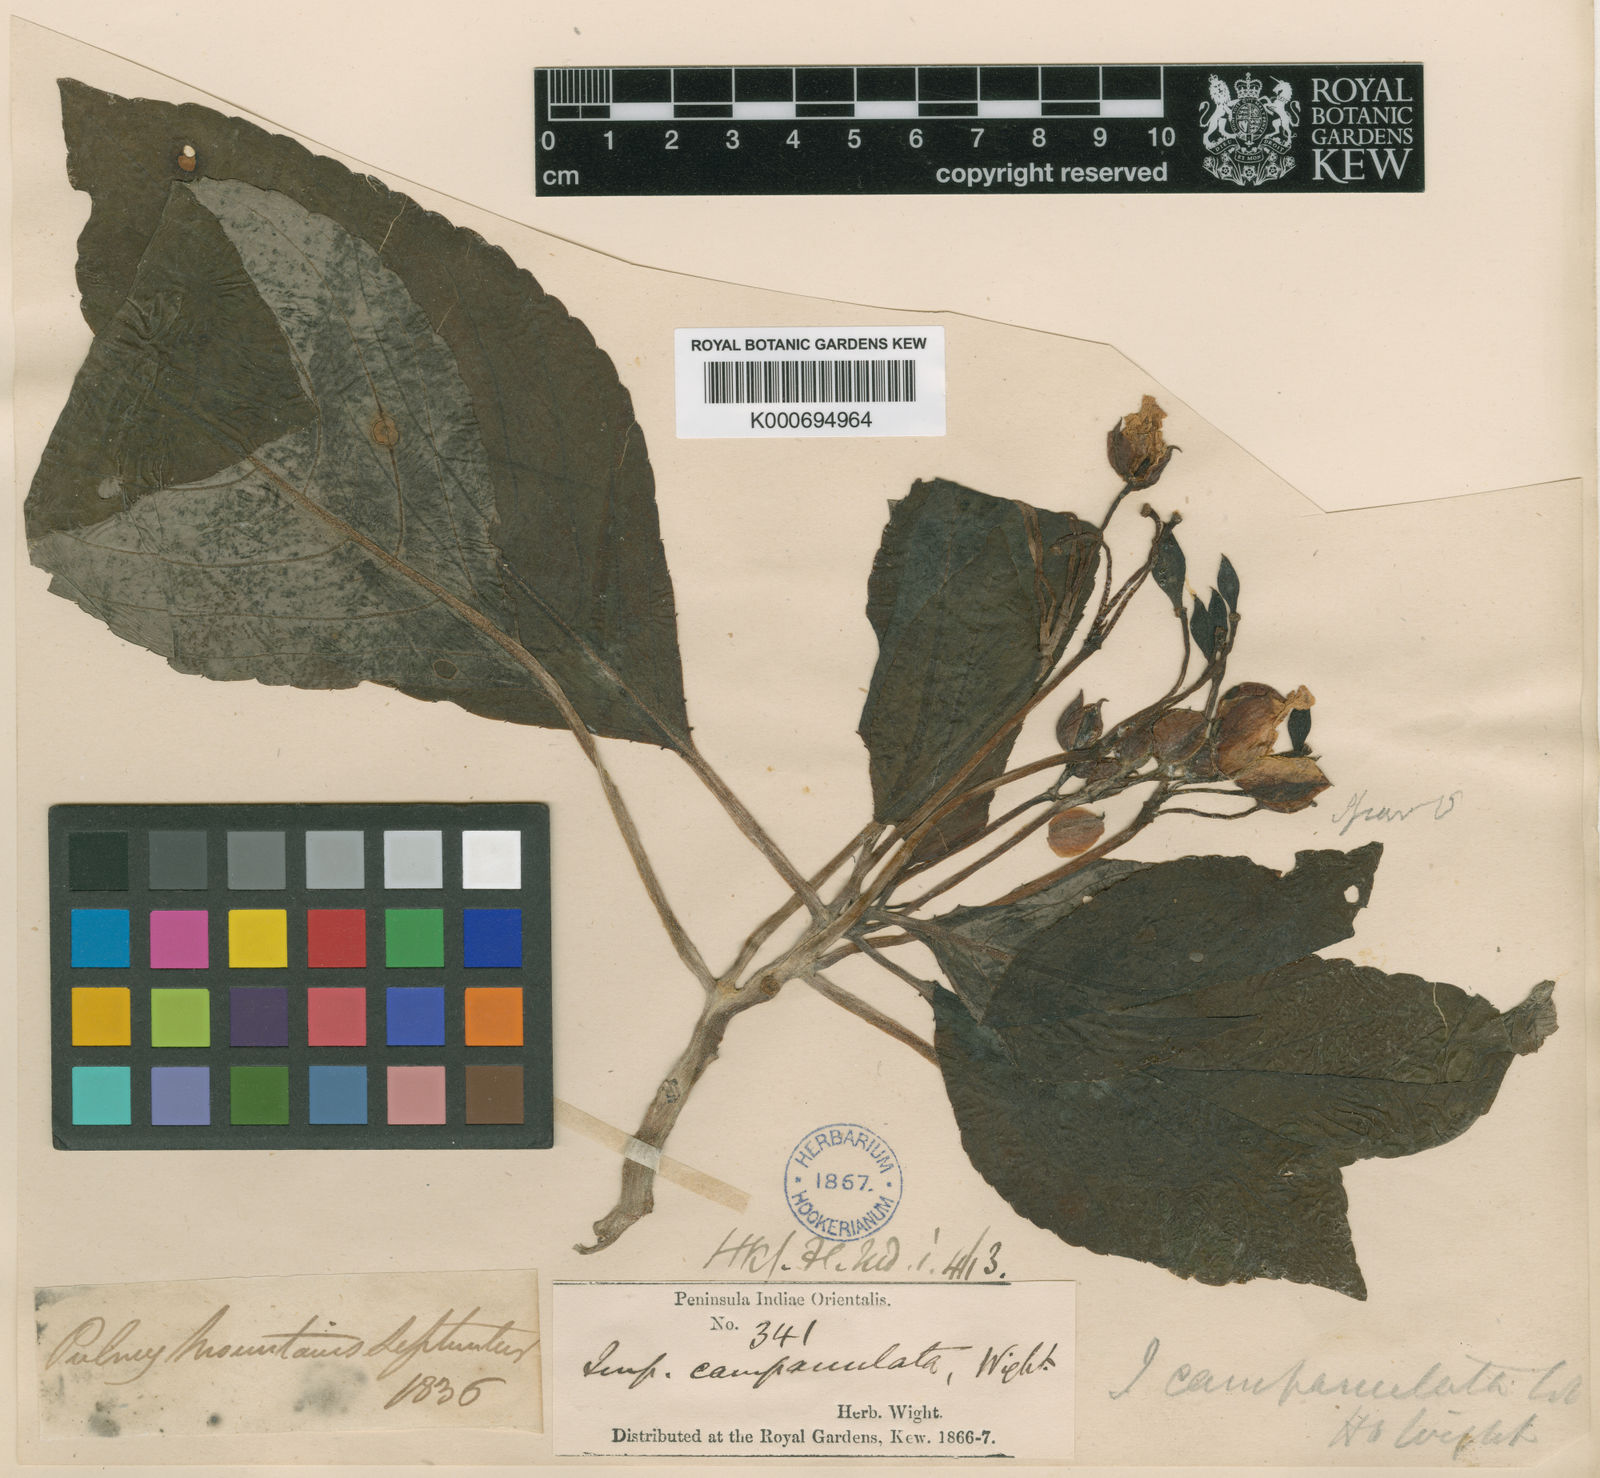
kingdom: Plantae
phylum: Tracheophyta
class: Magnoliopsida
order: Ericales
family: Balsaminaceae
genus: Impatiens
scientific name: Impatiens campanulata
